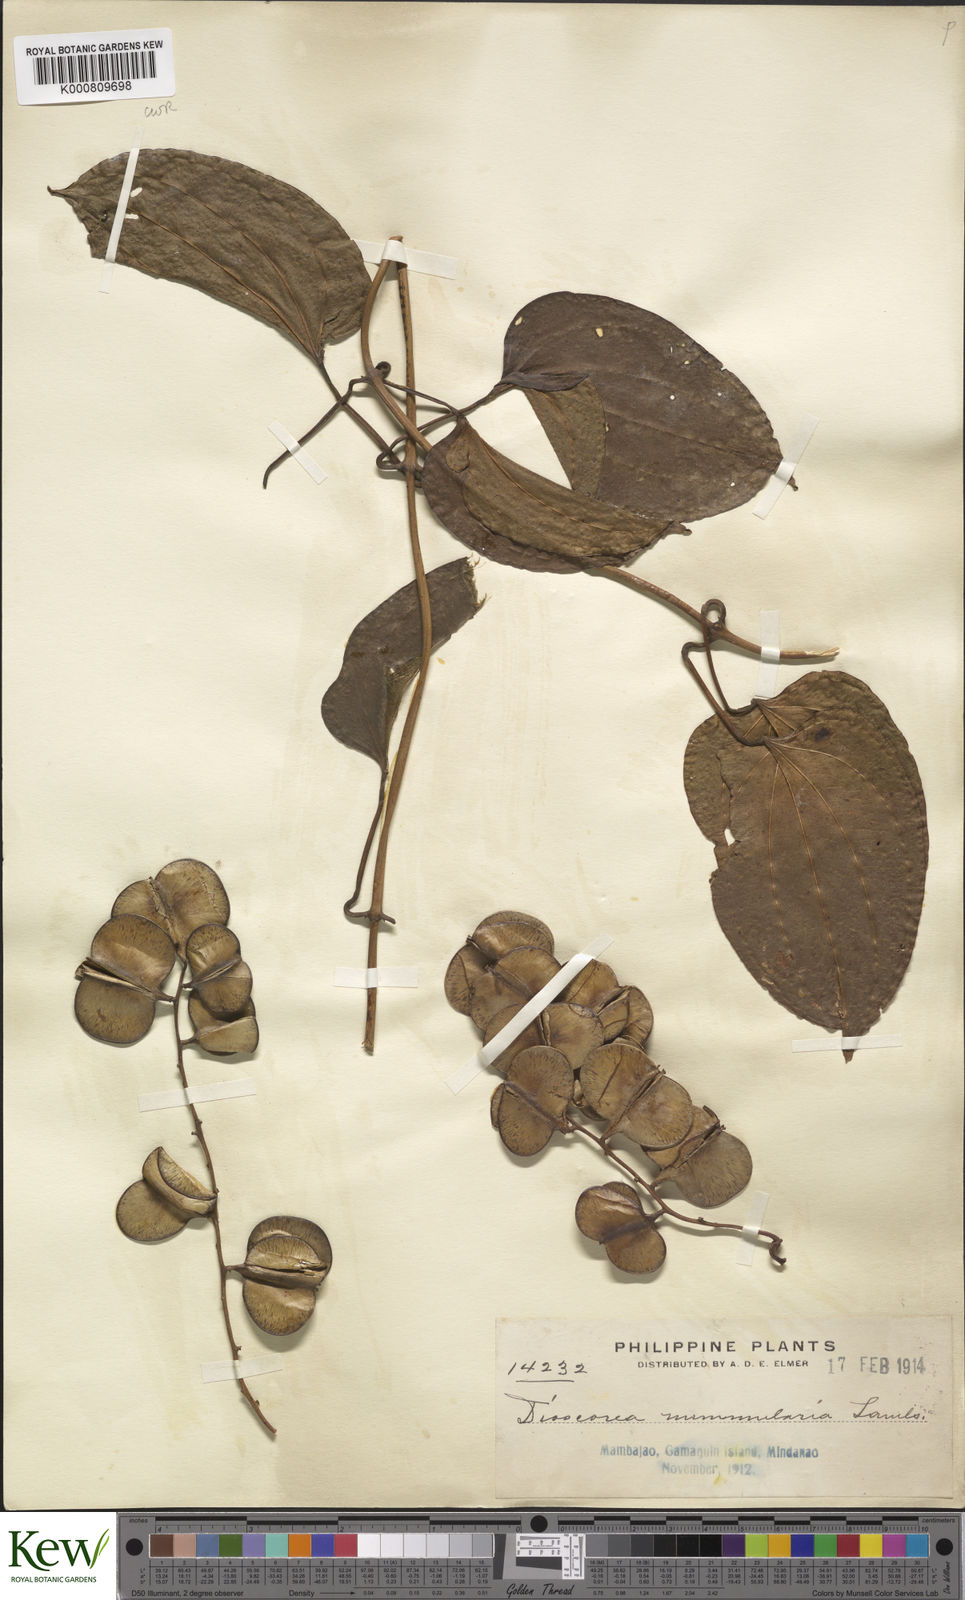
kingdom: Plantae
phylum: Tracheophyta
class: Liliopsida
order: Dioscoreales
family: Dioscoreaceae
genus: Dioscorea
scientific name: Dioscorea nummularia
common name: Pacific yam
